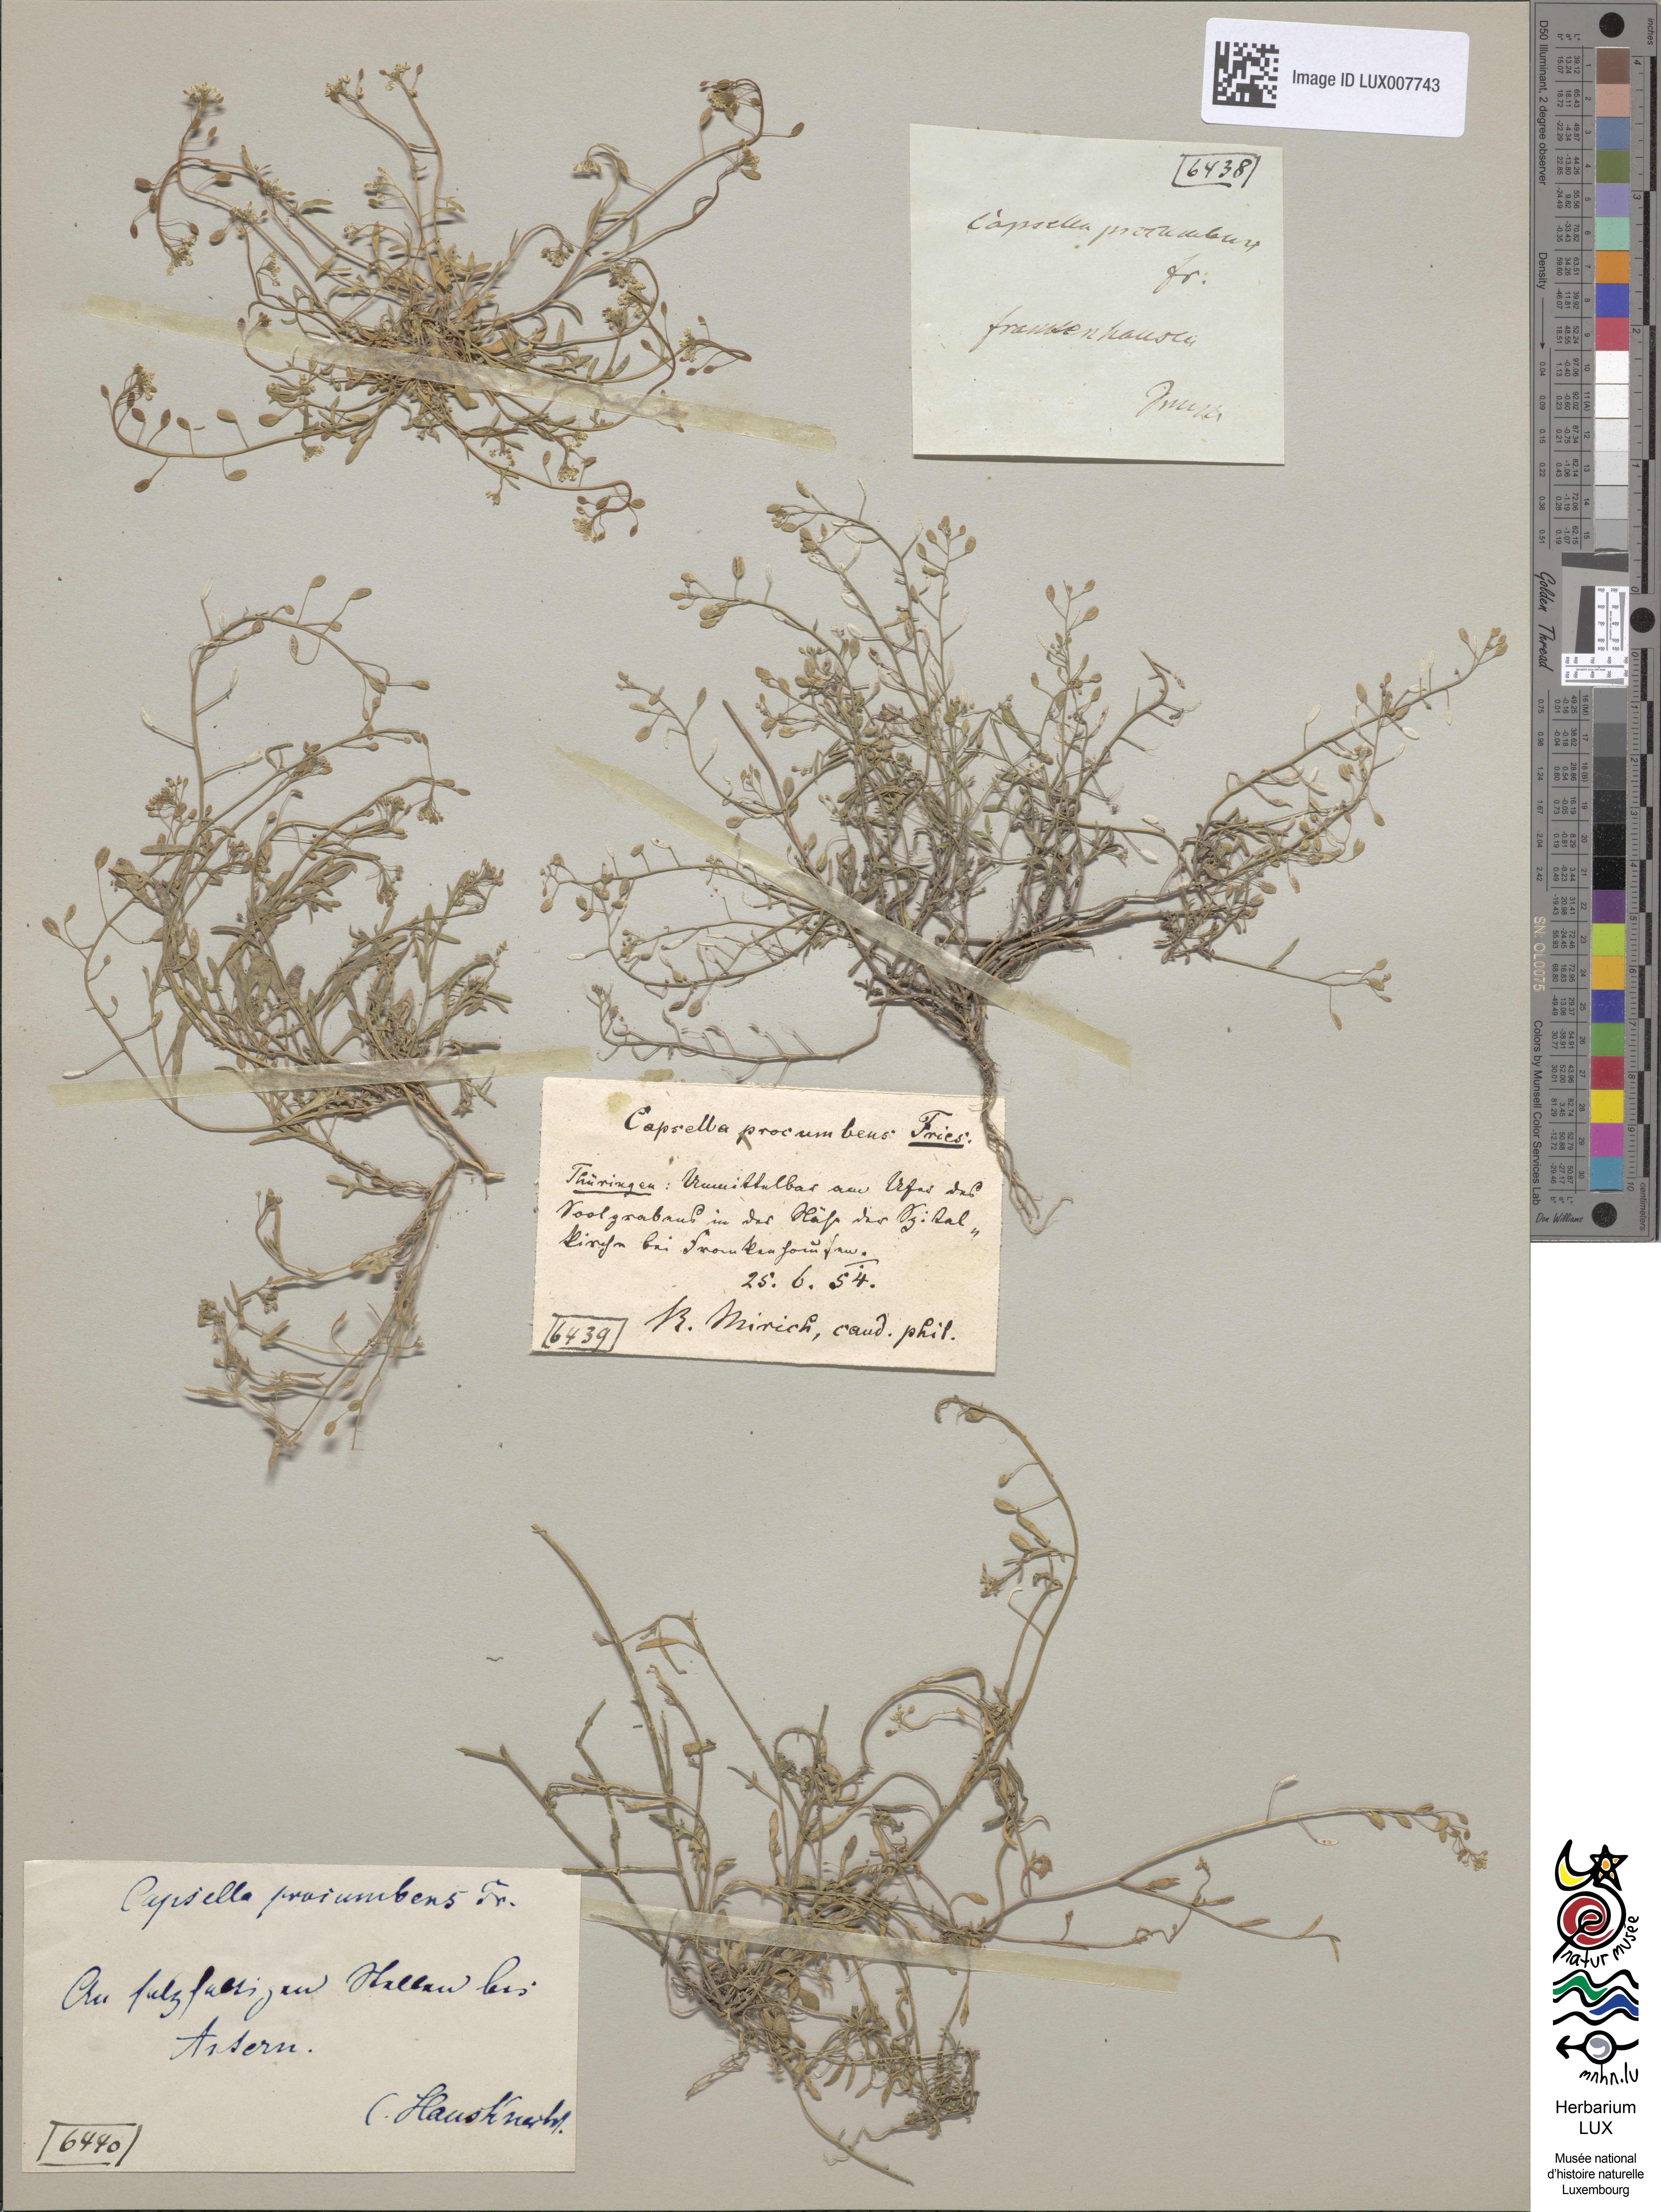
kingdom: Plantae
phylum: Tracheophyta
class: Magnoliopsida
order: Brassicales
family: Brassicaceae
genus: Hornungia
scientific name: Hornungia procumbens
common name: Oval purse
